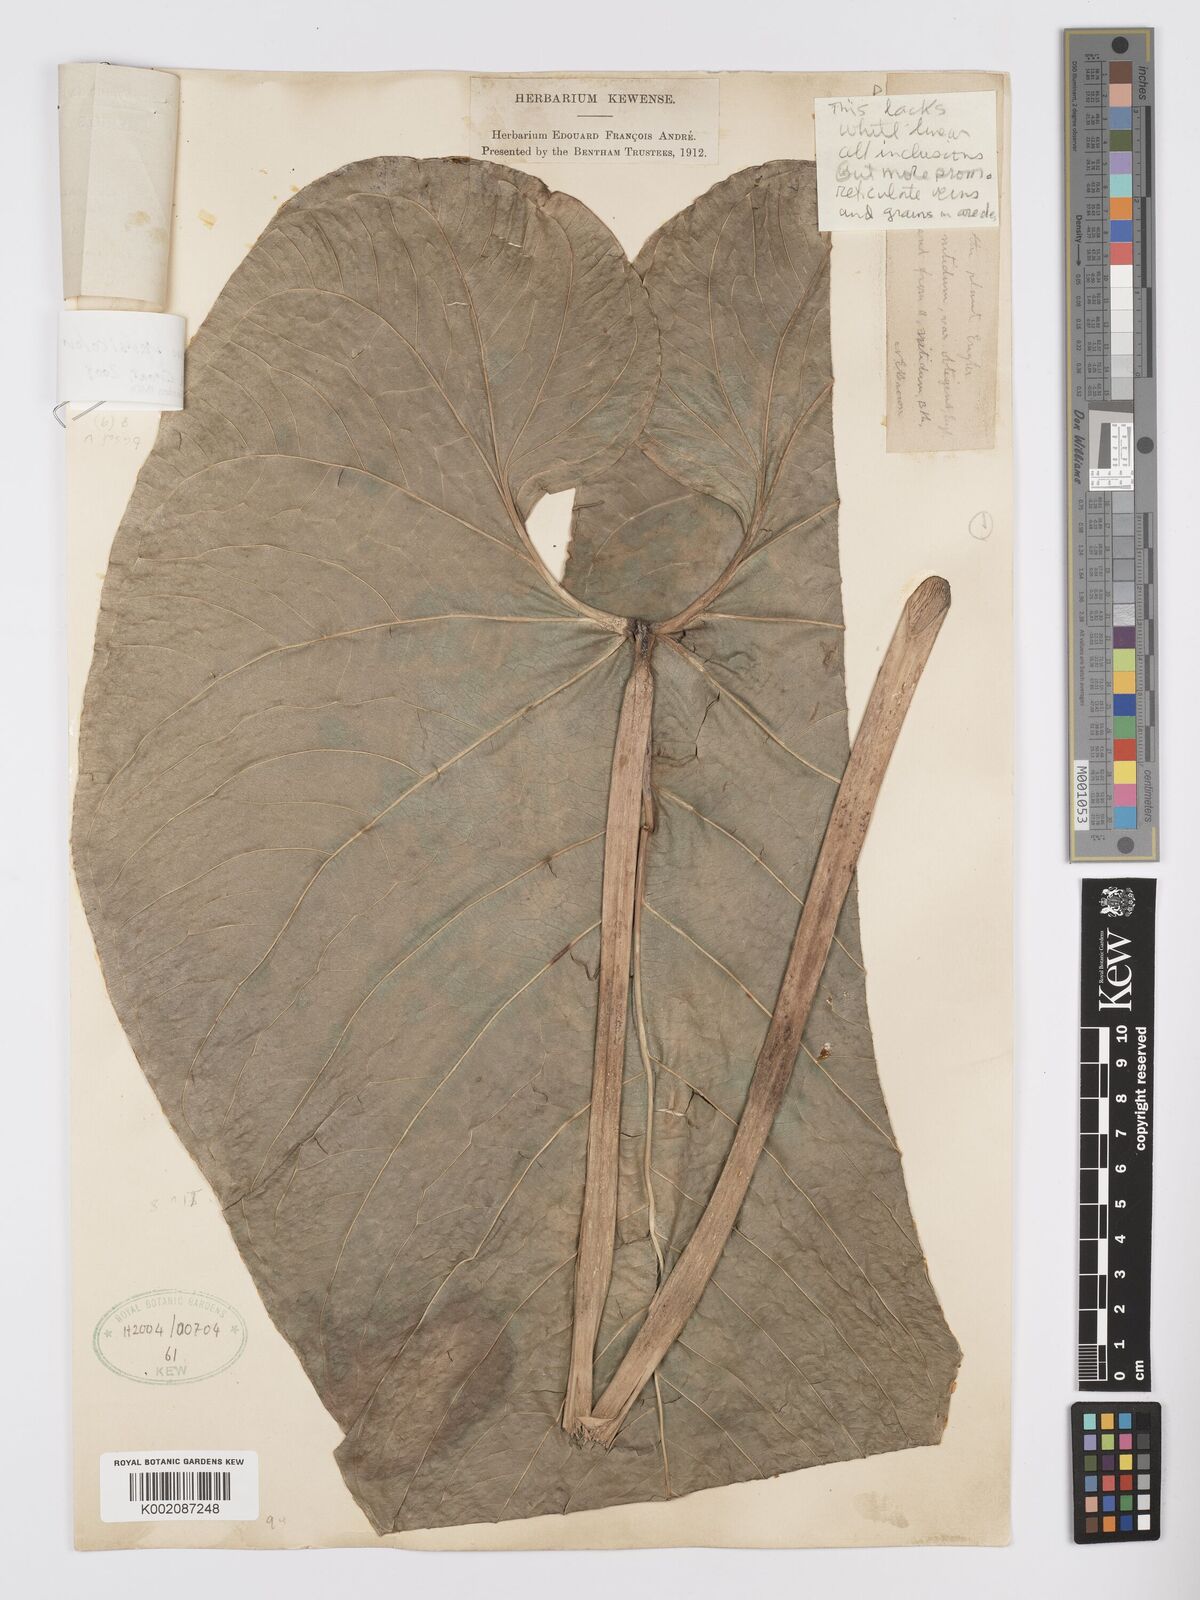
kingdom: Plantae
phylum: Tracheophyta
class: Liliopsida
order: Alismatales
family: Araceae
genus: Anthurium
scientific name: Anthurium versicolor
